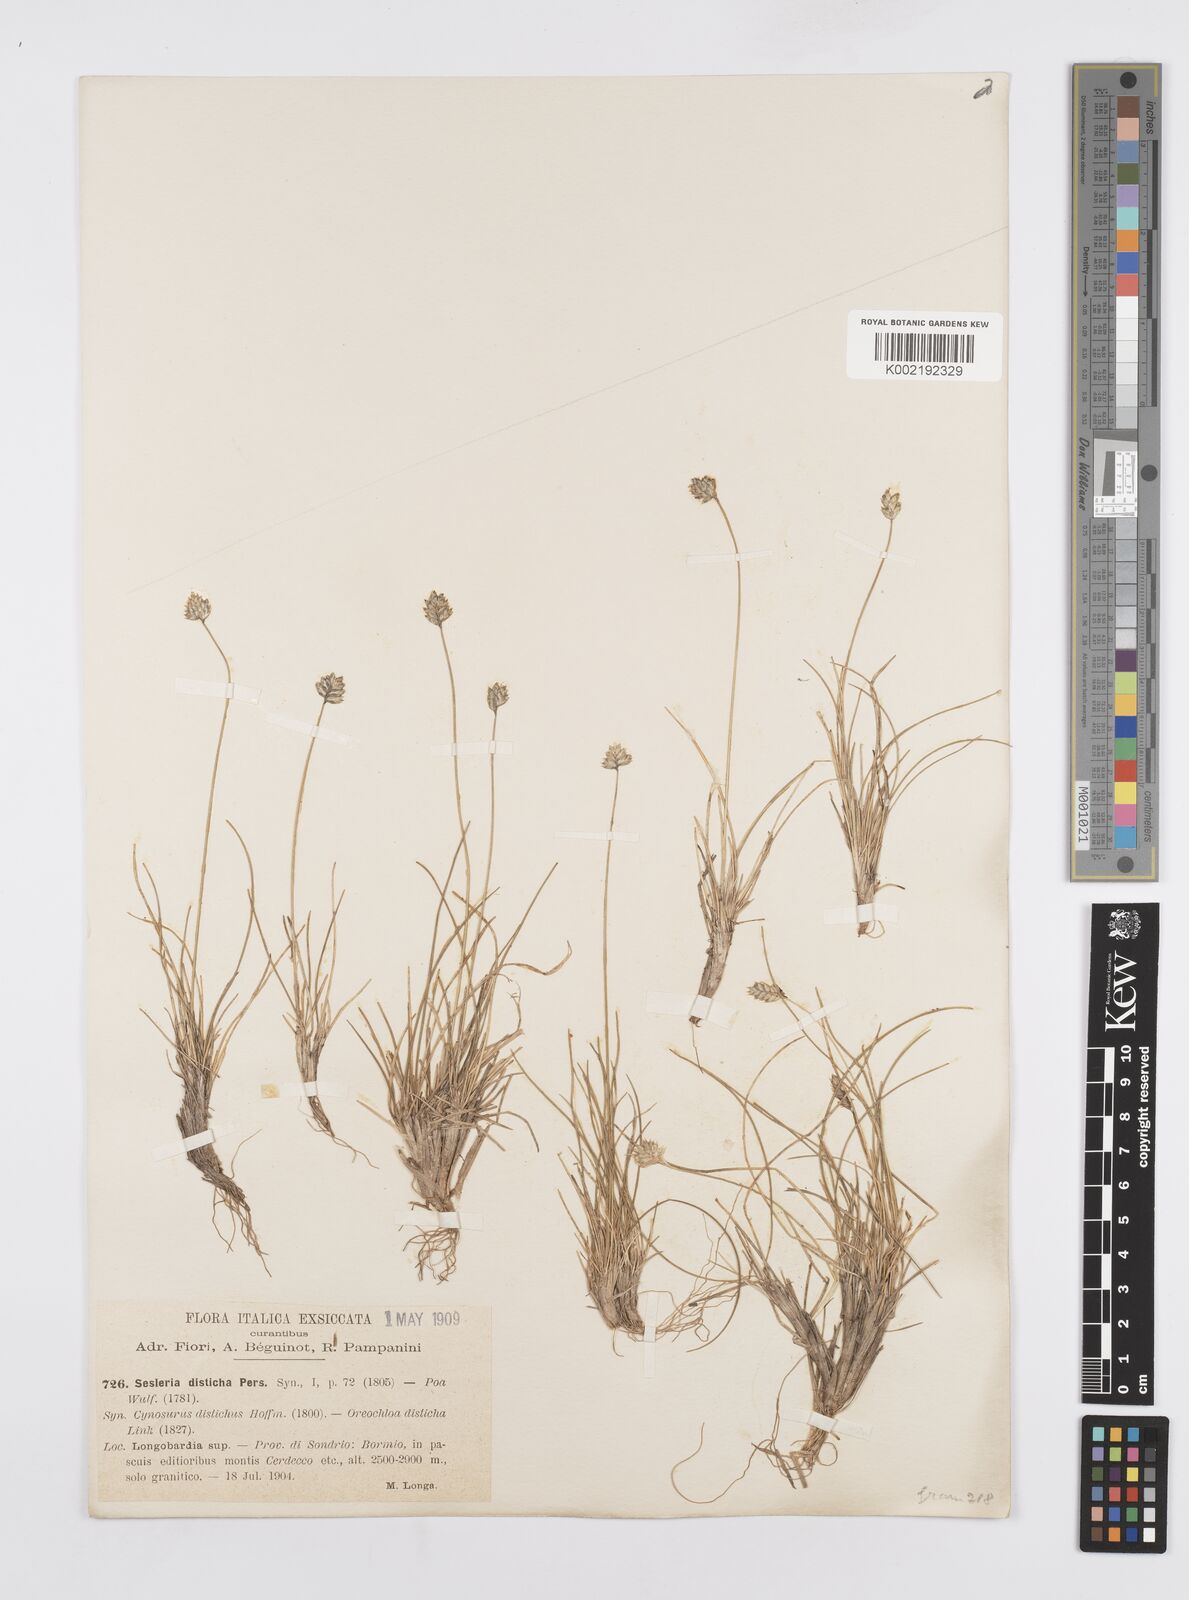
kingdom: Plantae
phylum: Tracheophyta
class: Liliopsida
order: Poales
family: Poaceae
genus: Oreochloa
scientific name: Oreochloa disticha
